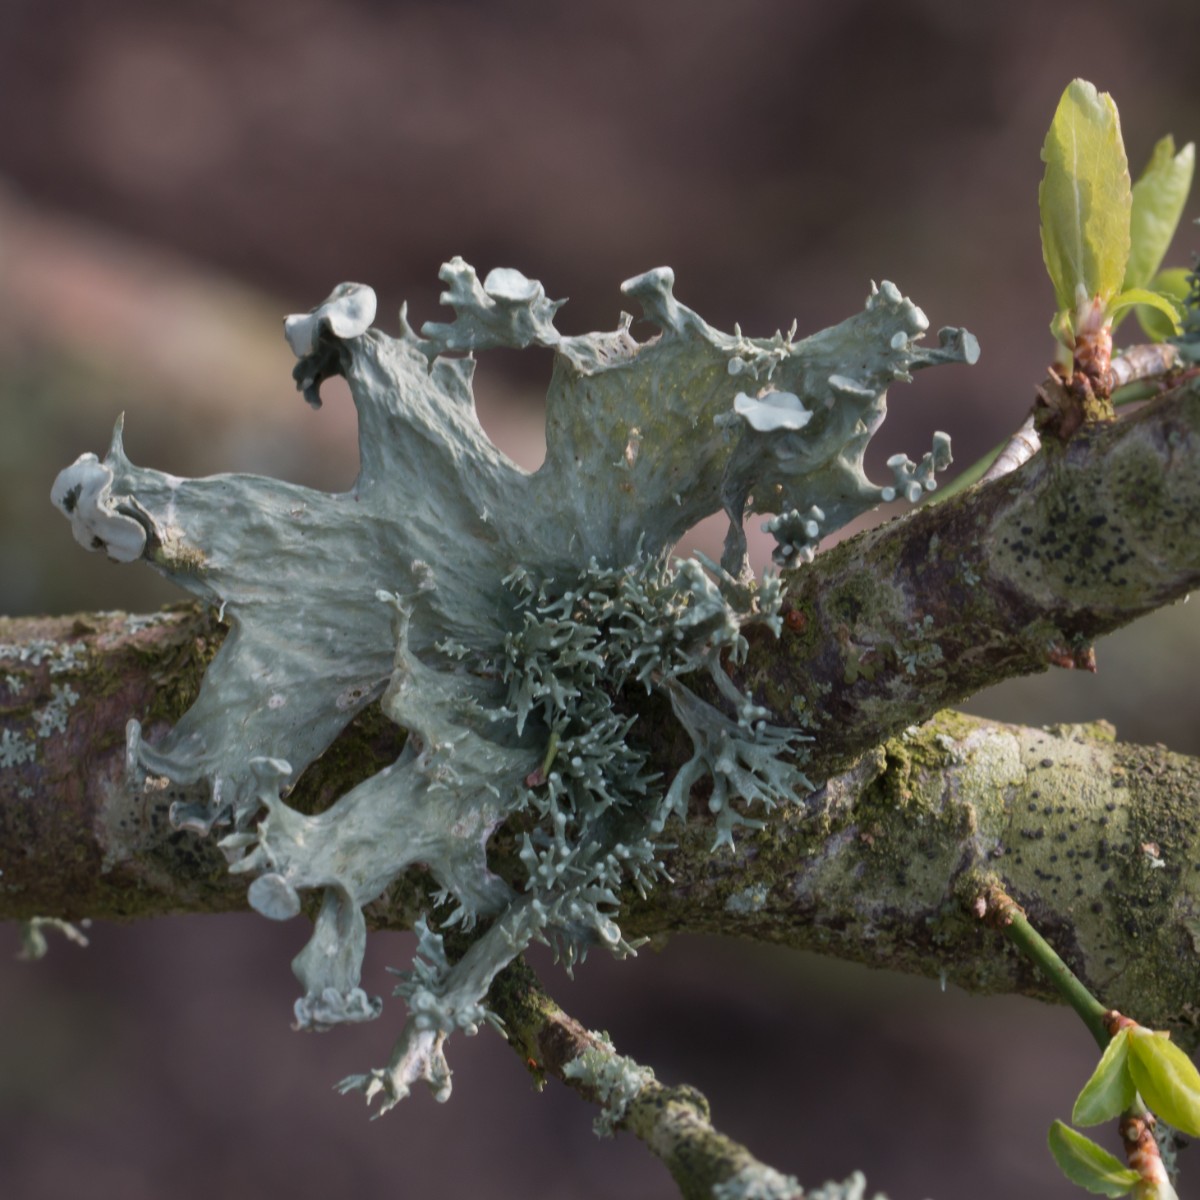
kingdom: Fungi
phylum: Ascomycota
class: Lecanoromycetes
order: Lecanorales
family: Ramalinaceae
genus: Ramalina
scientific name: Ramalina fastigiata
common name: tue-grenlav
